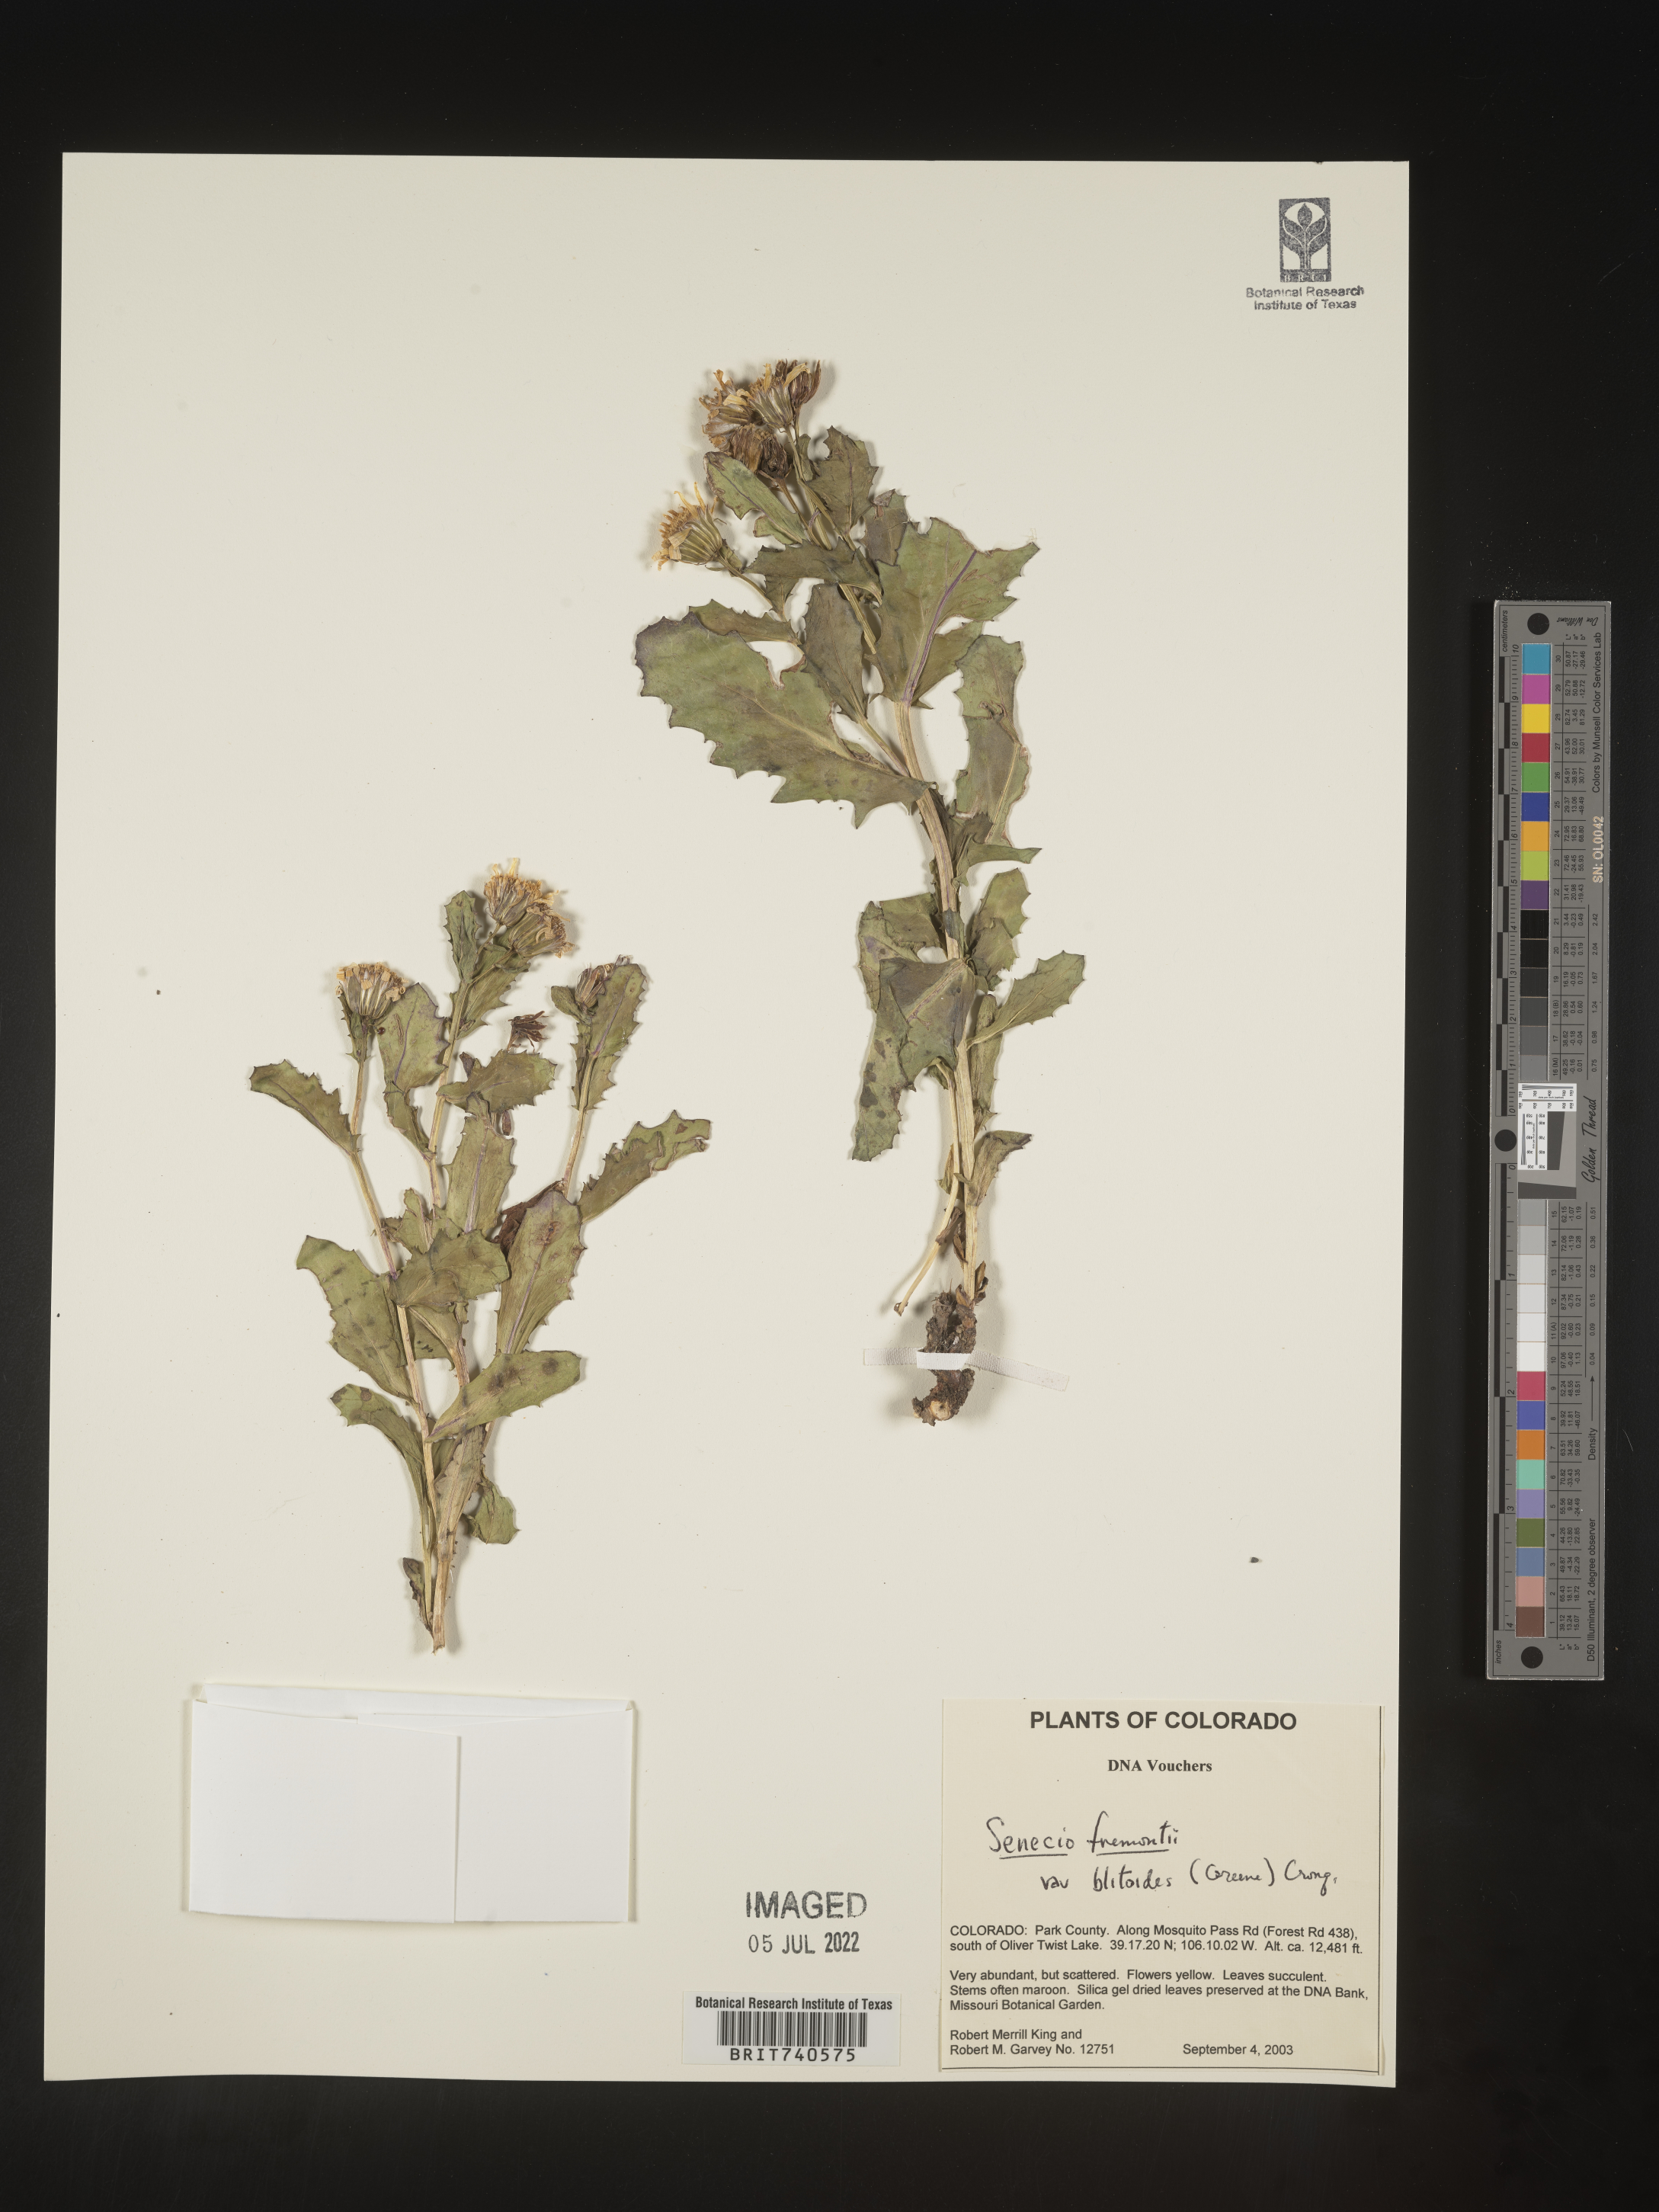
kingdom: Plantae
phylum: Tracheophyta
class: Magnoliopsida
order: Asterales
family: Asteraceae
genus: Senecio
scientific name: Senecio blitoides
